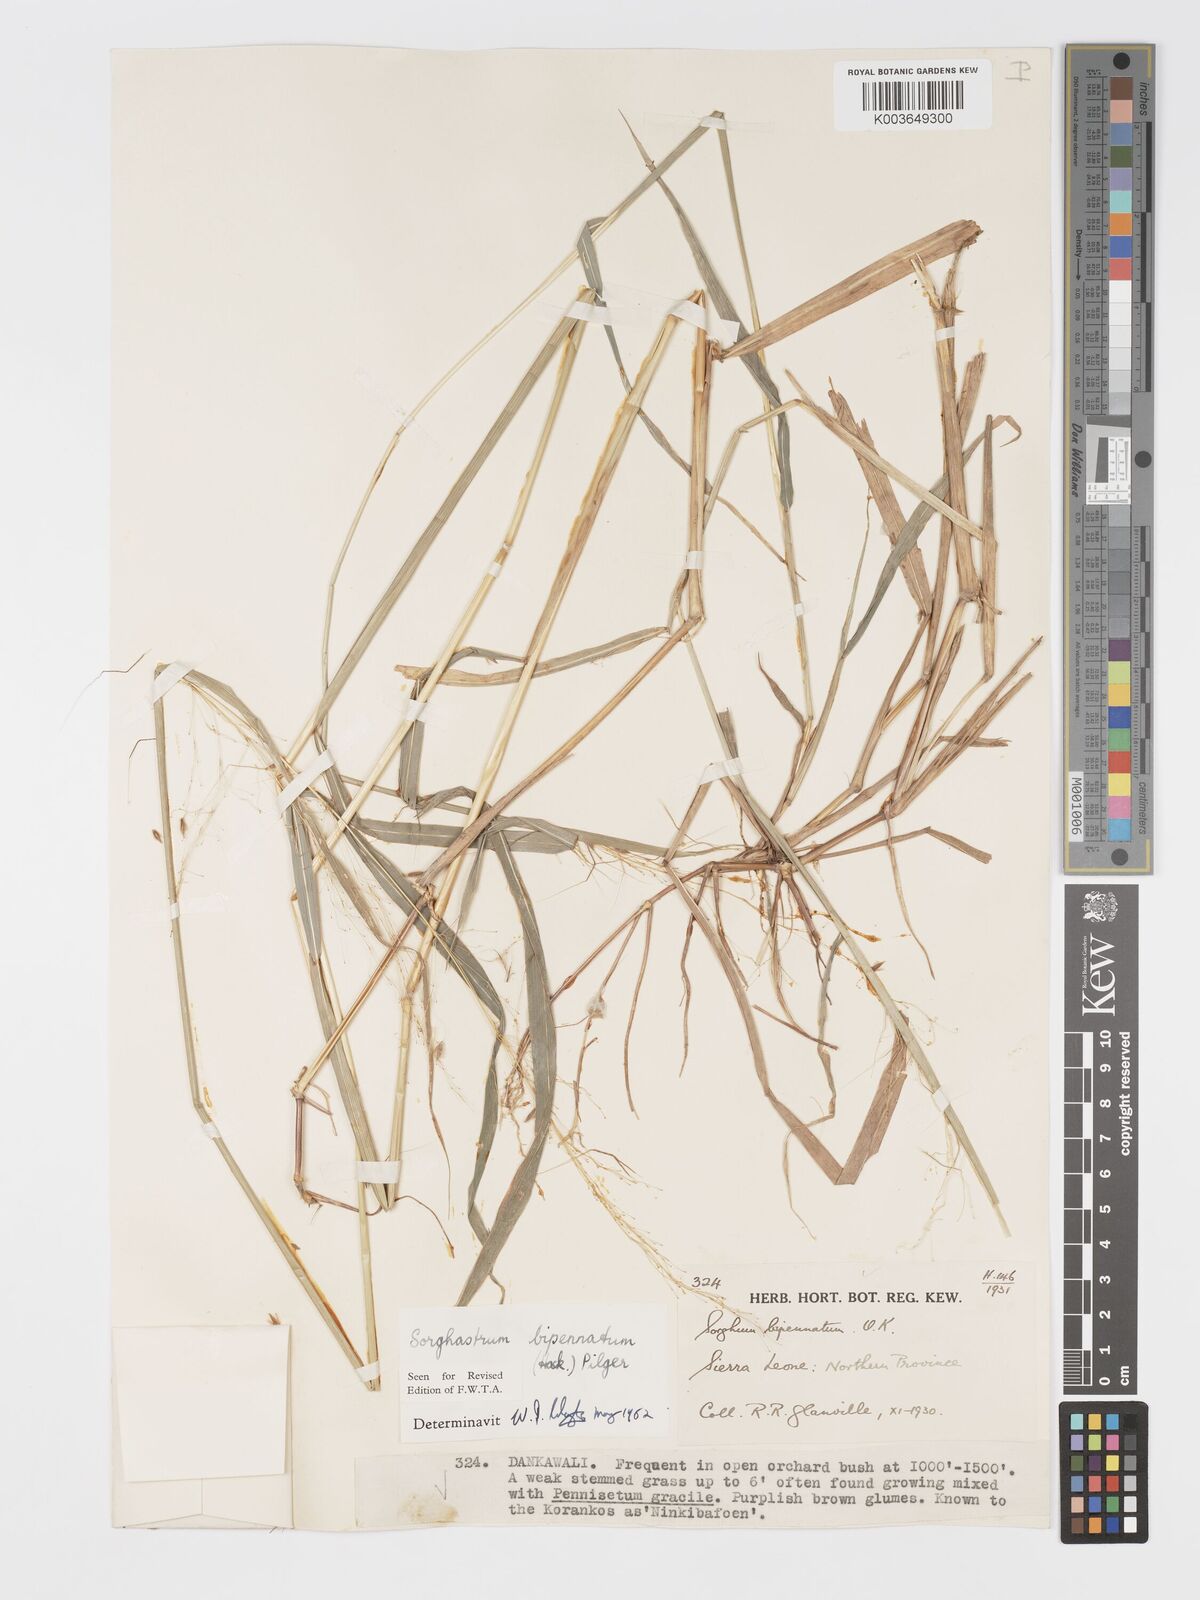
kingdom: Plantae
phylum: Tracheophyta
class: Liliopsida
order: Poales
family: Poaceae
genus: Sorghastrum
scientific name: Sorghastrum incompletum
